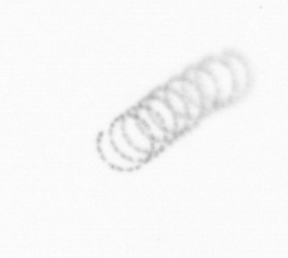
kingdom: Chromista
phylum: Ochrophyta
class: Bacillariophyceae
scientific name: Bacillariophyceae
